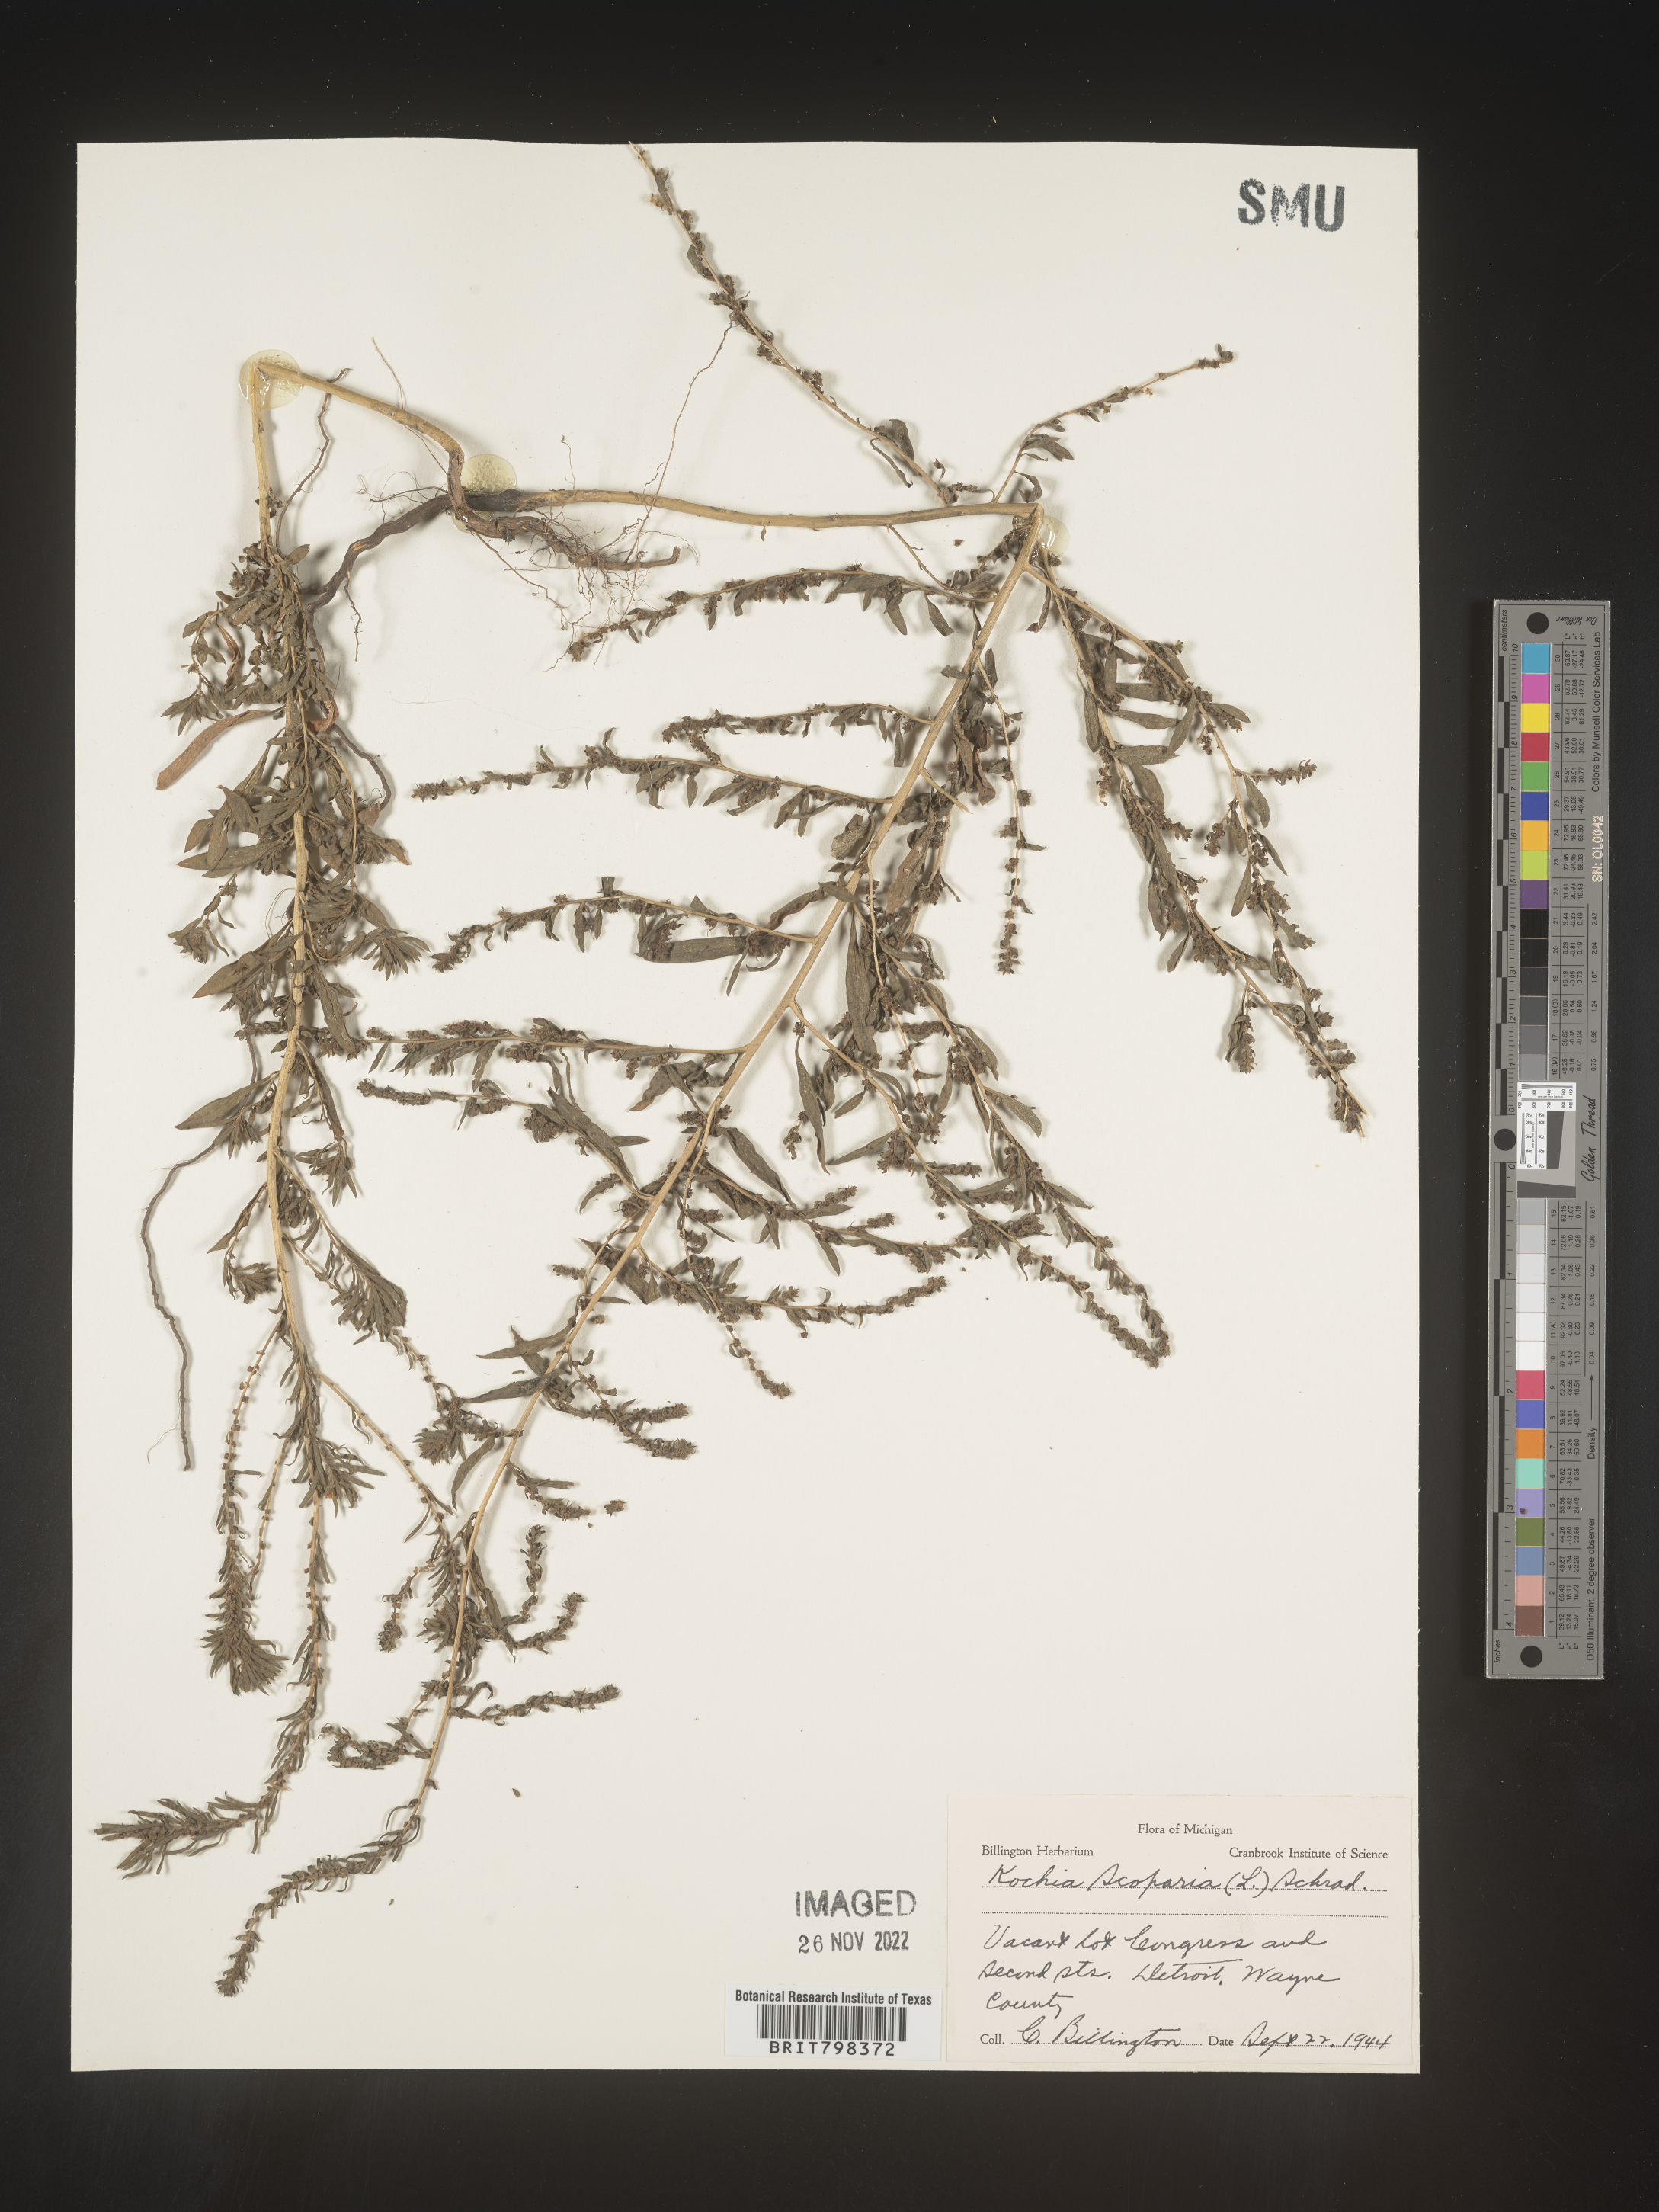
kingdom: Plantae
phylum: Tracheophyta
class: Magnoliopsida
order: Caryophyllales
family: Amaranthaceae
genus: Bassia
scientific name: Bassia
